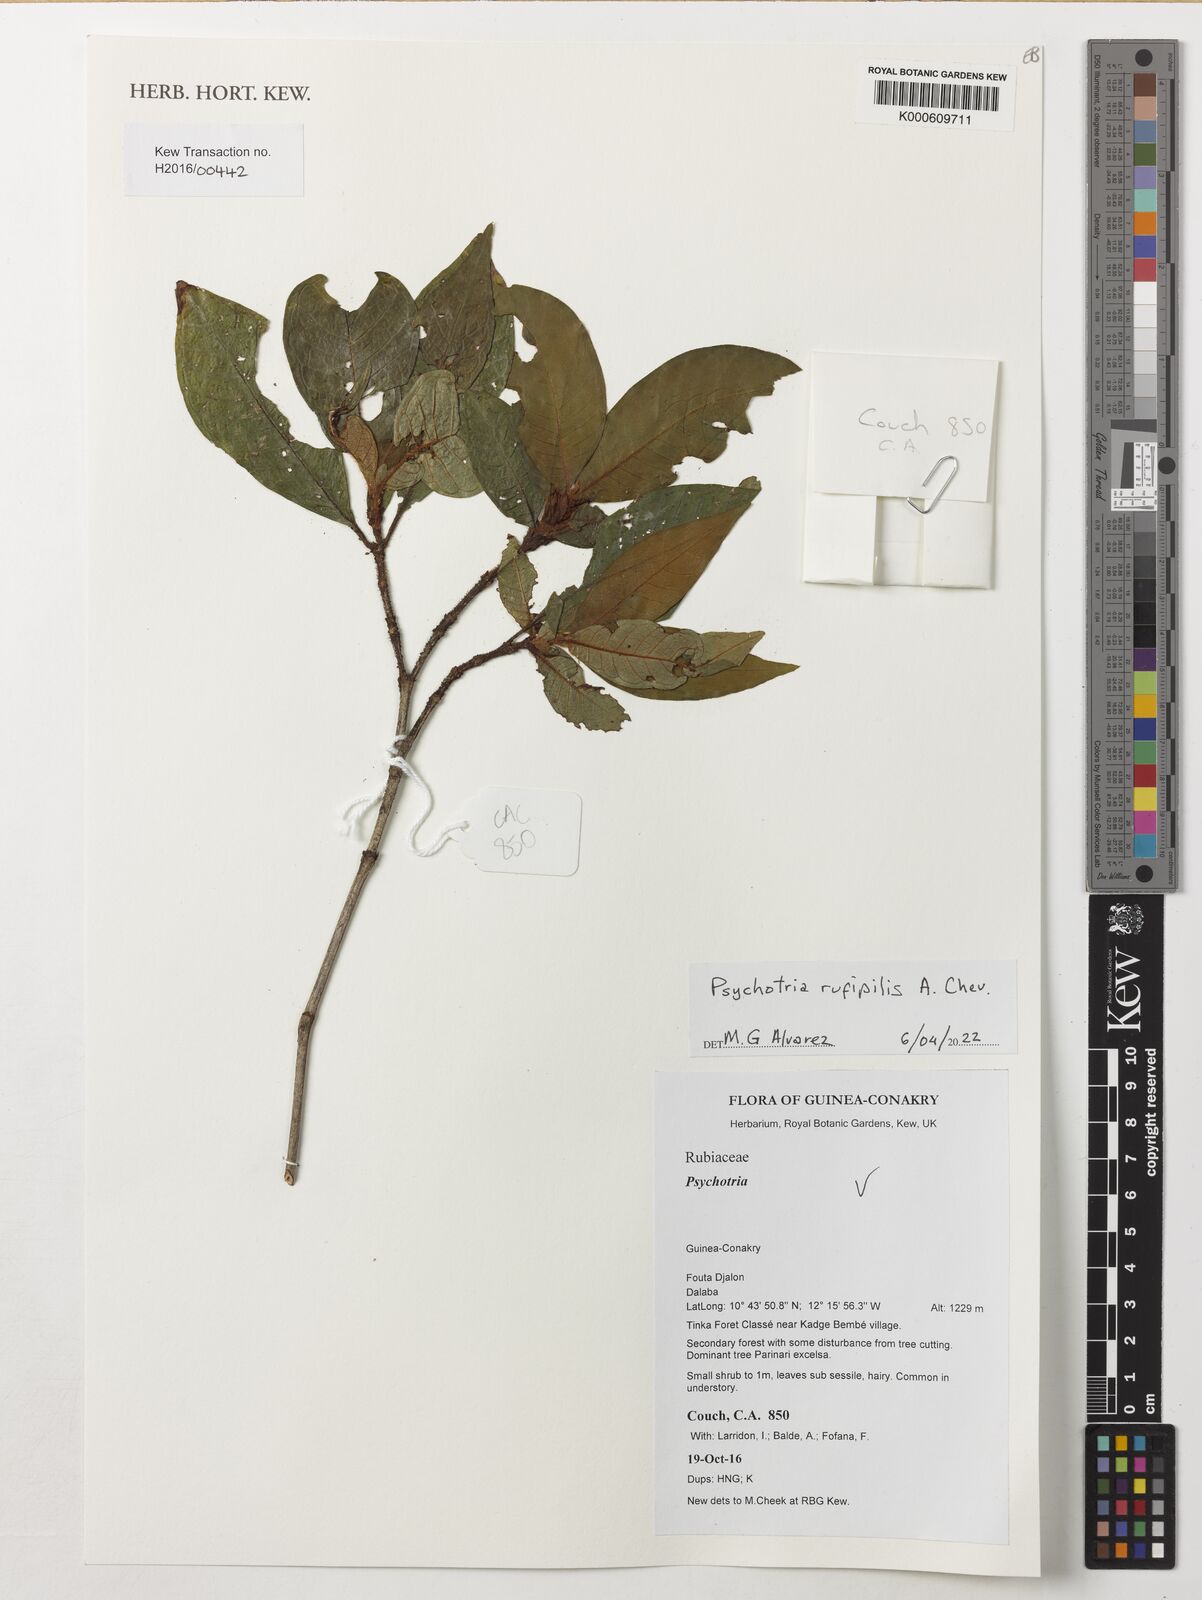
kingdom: Plantae
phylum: Tracheophyta
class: Magnoliopsida
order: Gentianales
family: Rubiaceae
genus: Psychotria
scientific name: Psychotria rufipilis
